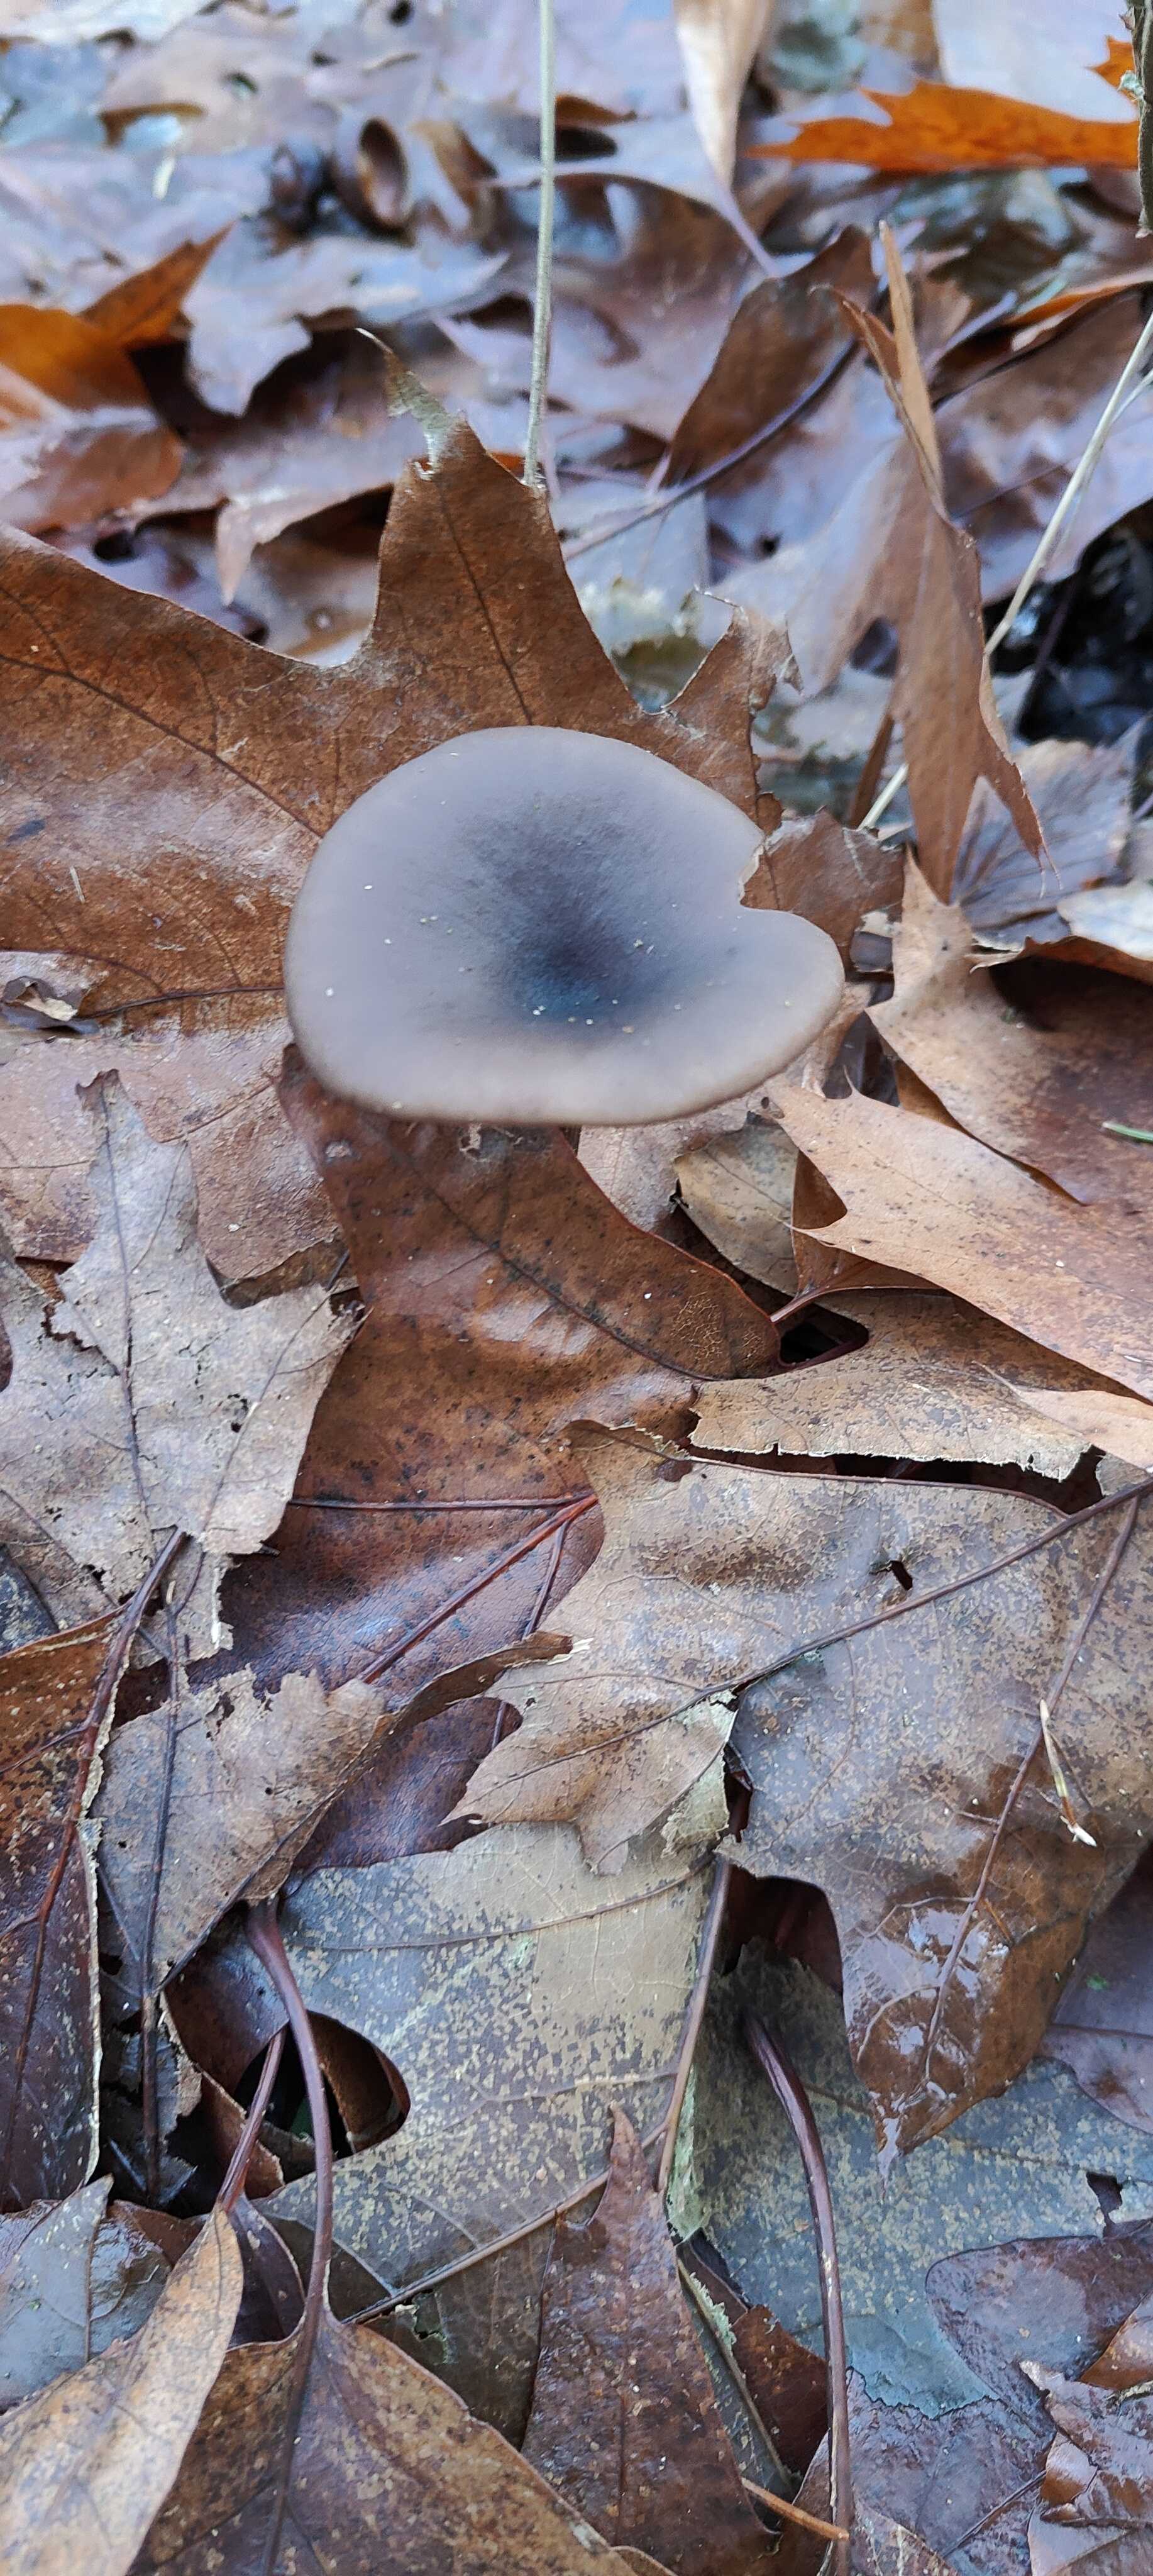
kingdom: Fungi
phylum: Basidiomycota
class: Agaricomycetes
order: Agaricales
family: Pseudoclitocybaceae
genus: Pseudoclitocybe
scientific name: Pseudoclitocybe cyathiformis
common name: almindelig bægertragthat
